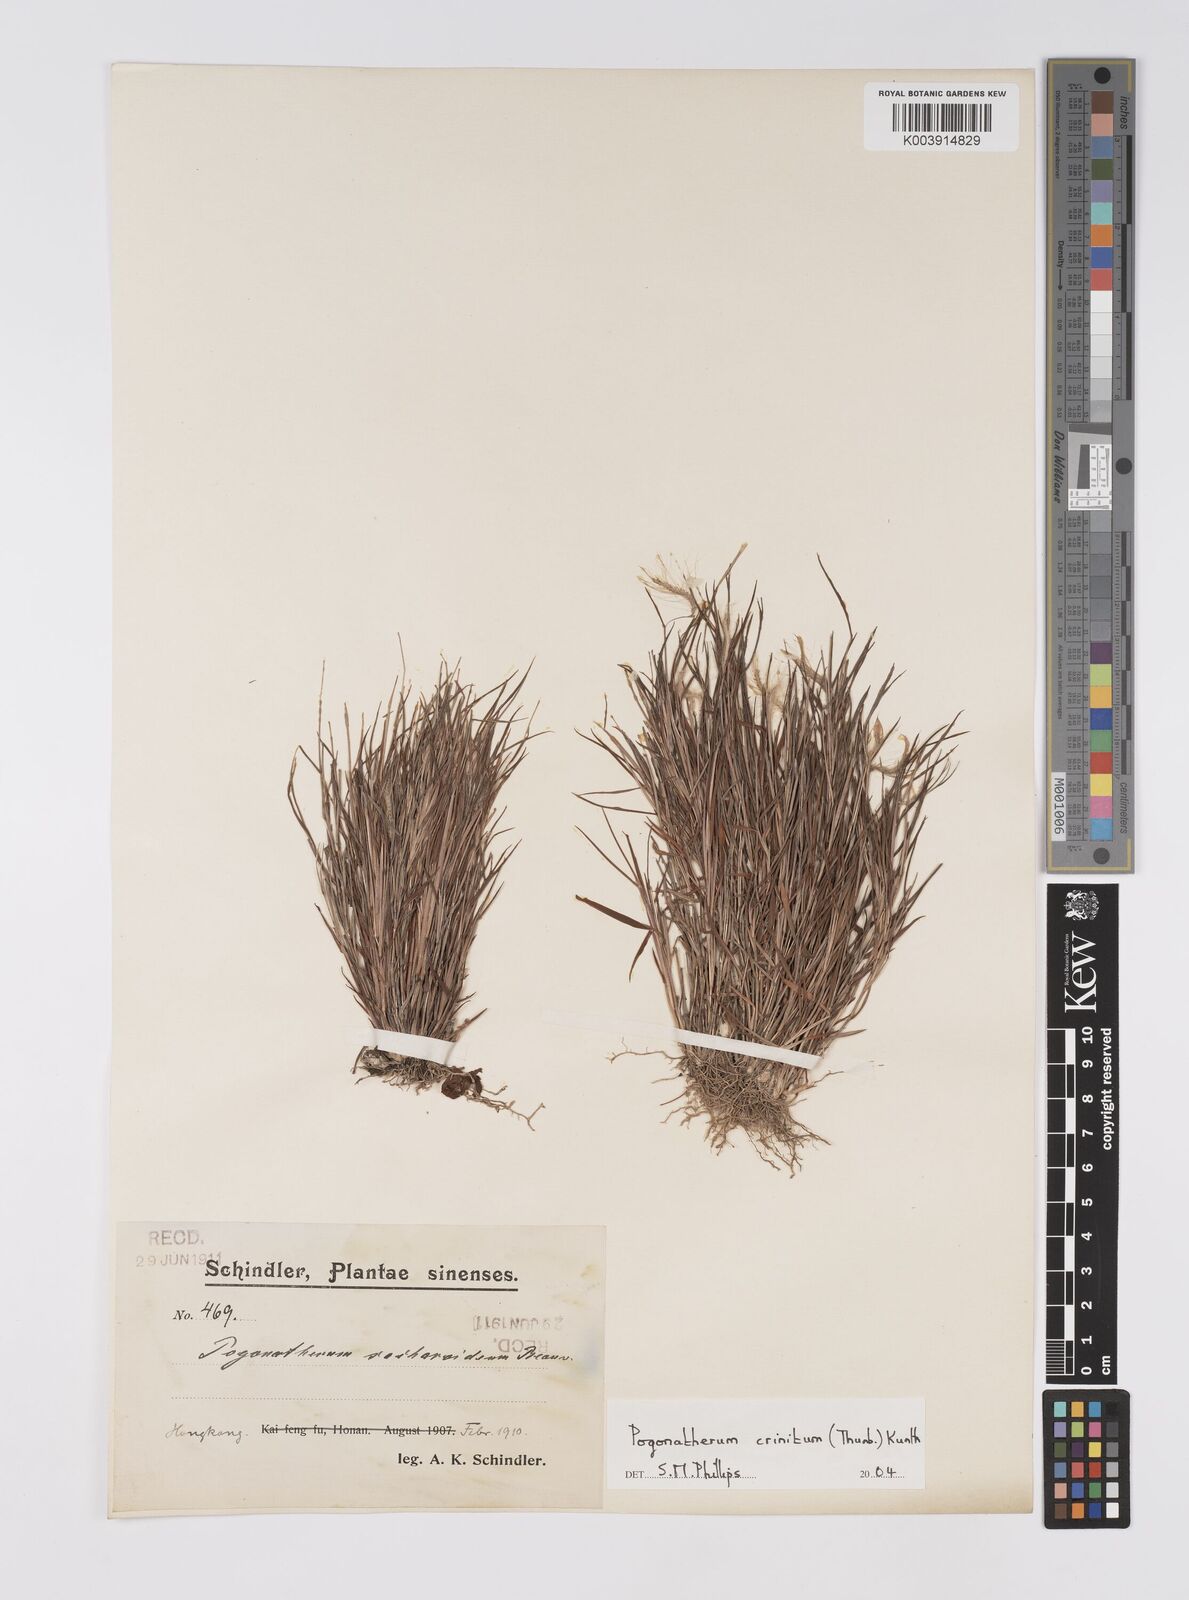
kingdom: Plantae
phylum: Tracheophyta
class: Liliopsida
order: Poales
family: Poaceae
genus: Pogonatherum
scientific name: Pogonatherum crinitum
